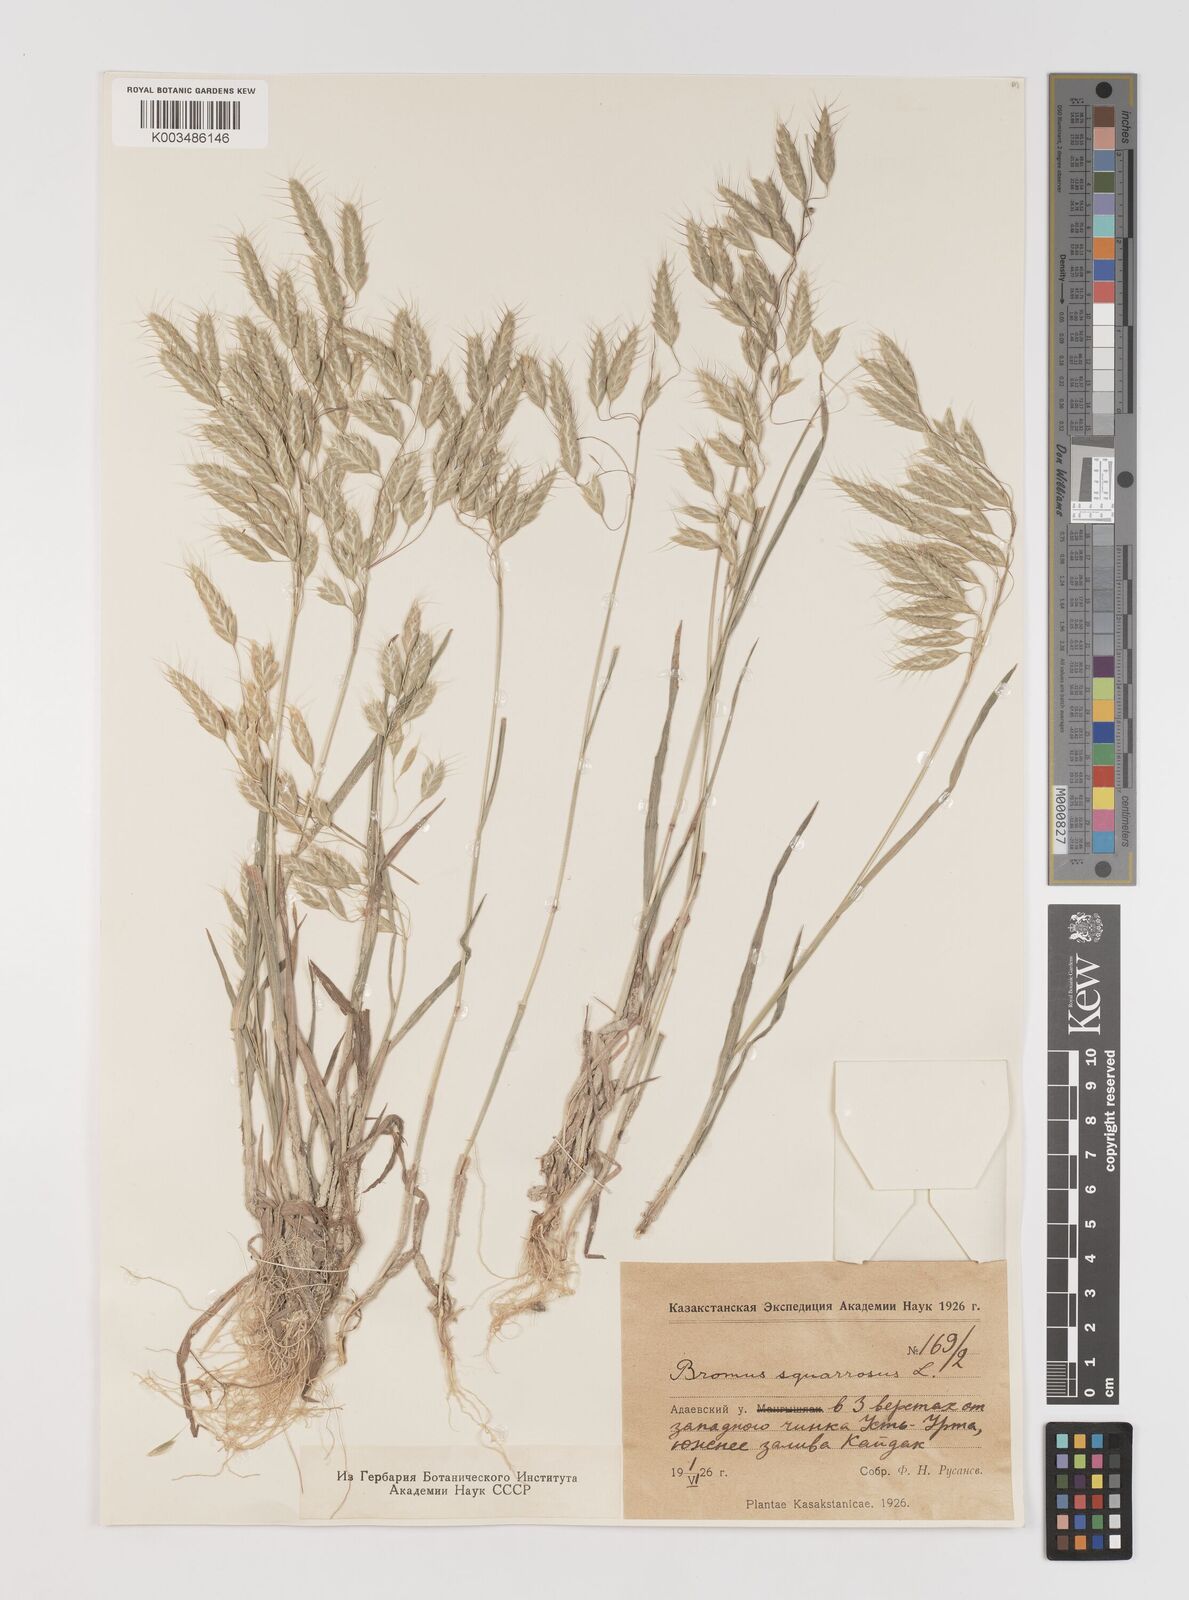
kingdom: Plantae
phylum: Tracheophyta
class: Liliopsida
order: Poales
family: Poaceae
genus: Bromus
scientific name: Bromus squarrosus
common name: Corn brome
